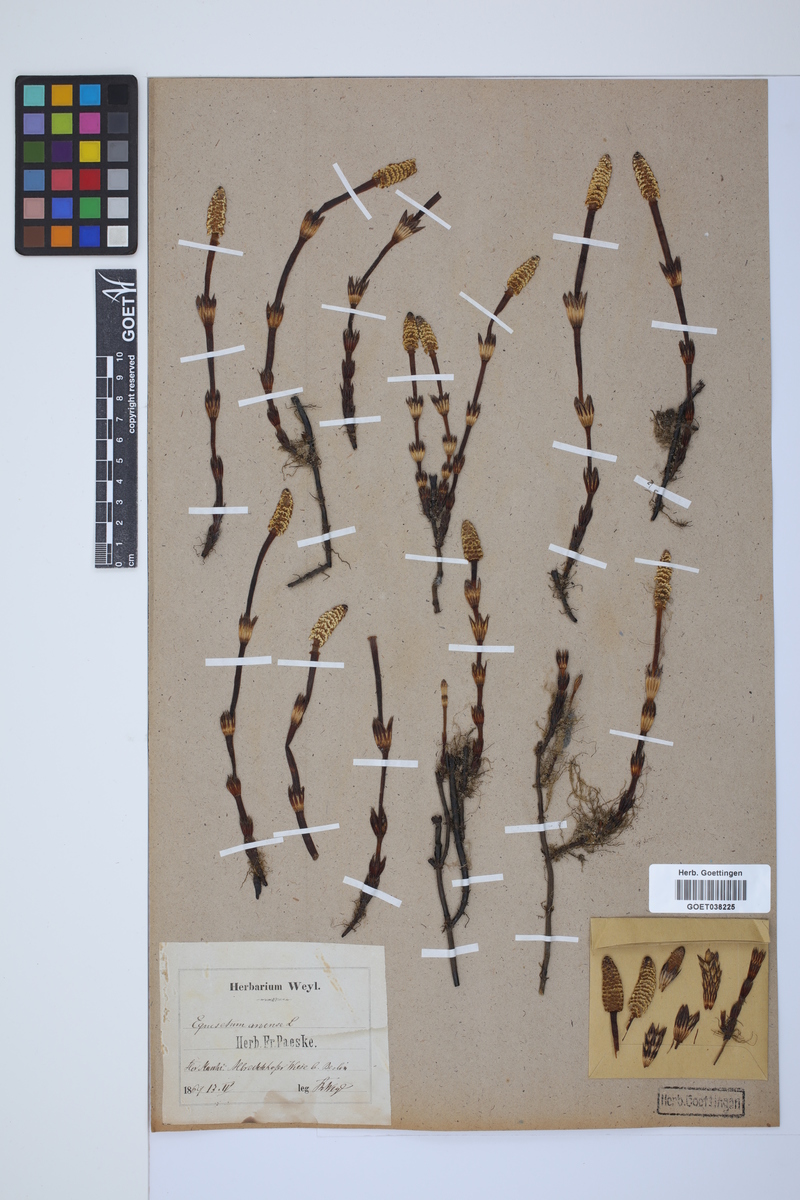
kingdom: Plantae
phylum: Tracheophyta
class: Polypodiopsida
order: Equisetales
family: Equisetaceae
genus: Equisetum
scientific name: Equisetum arvense
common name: Field horsetail
